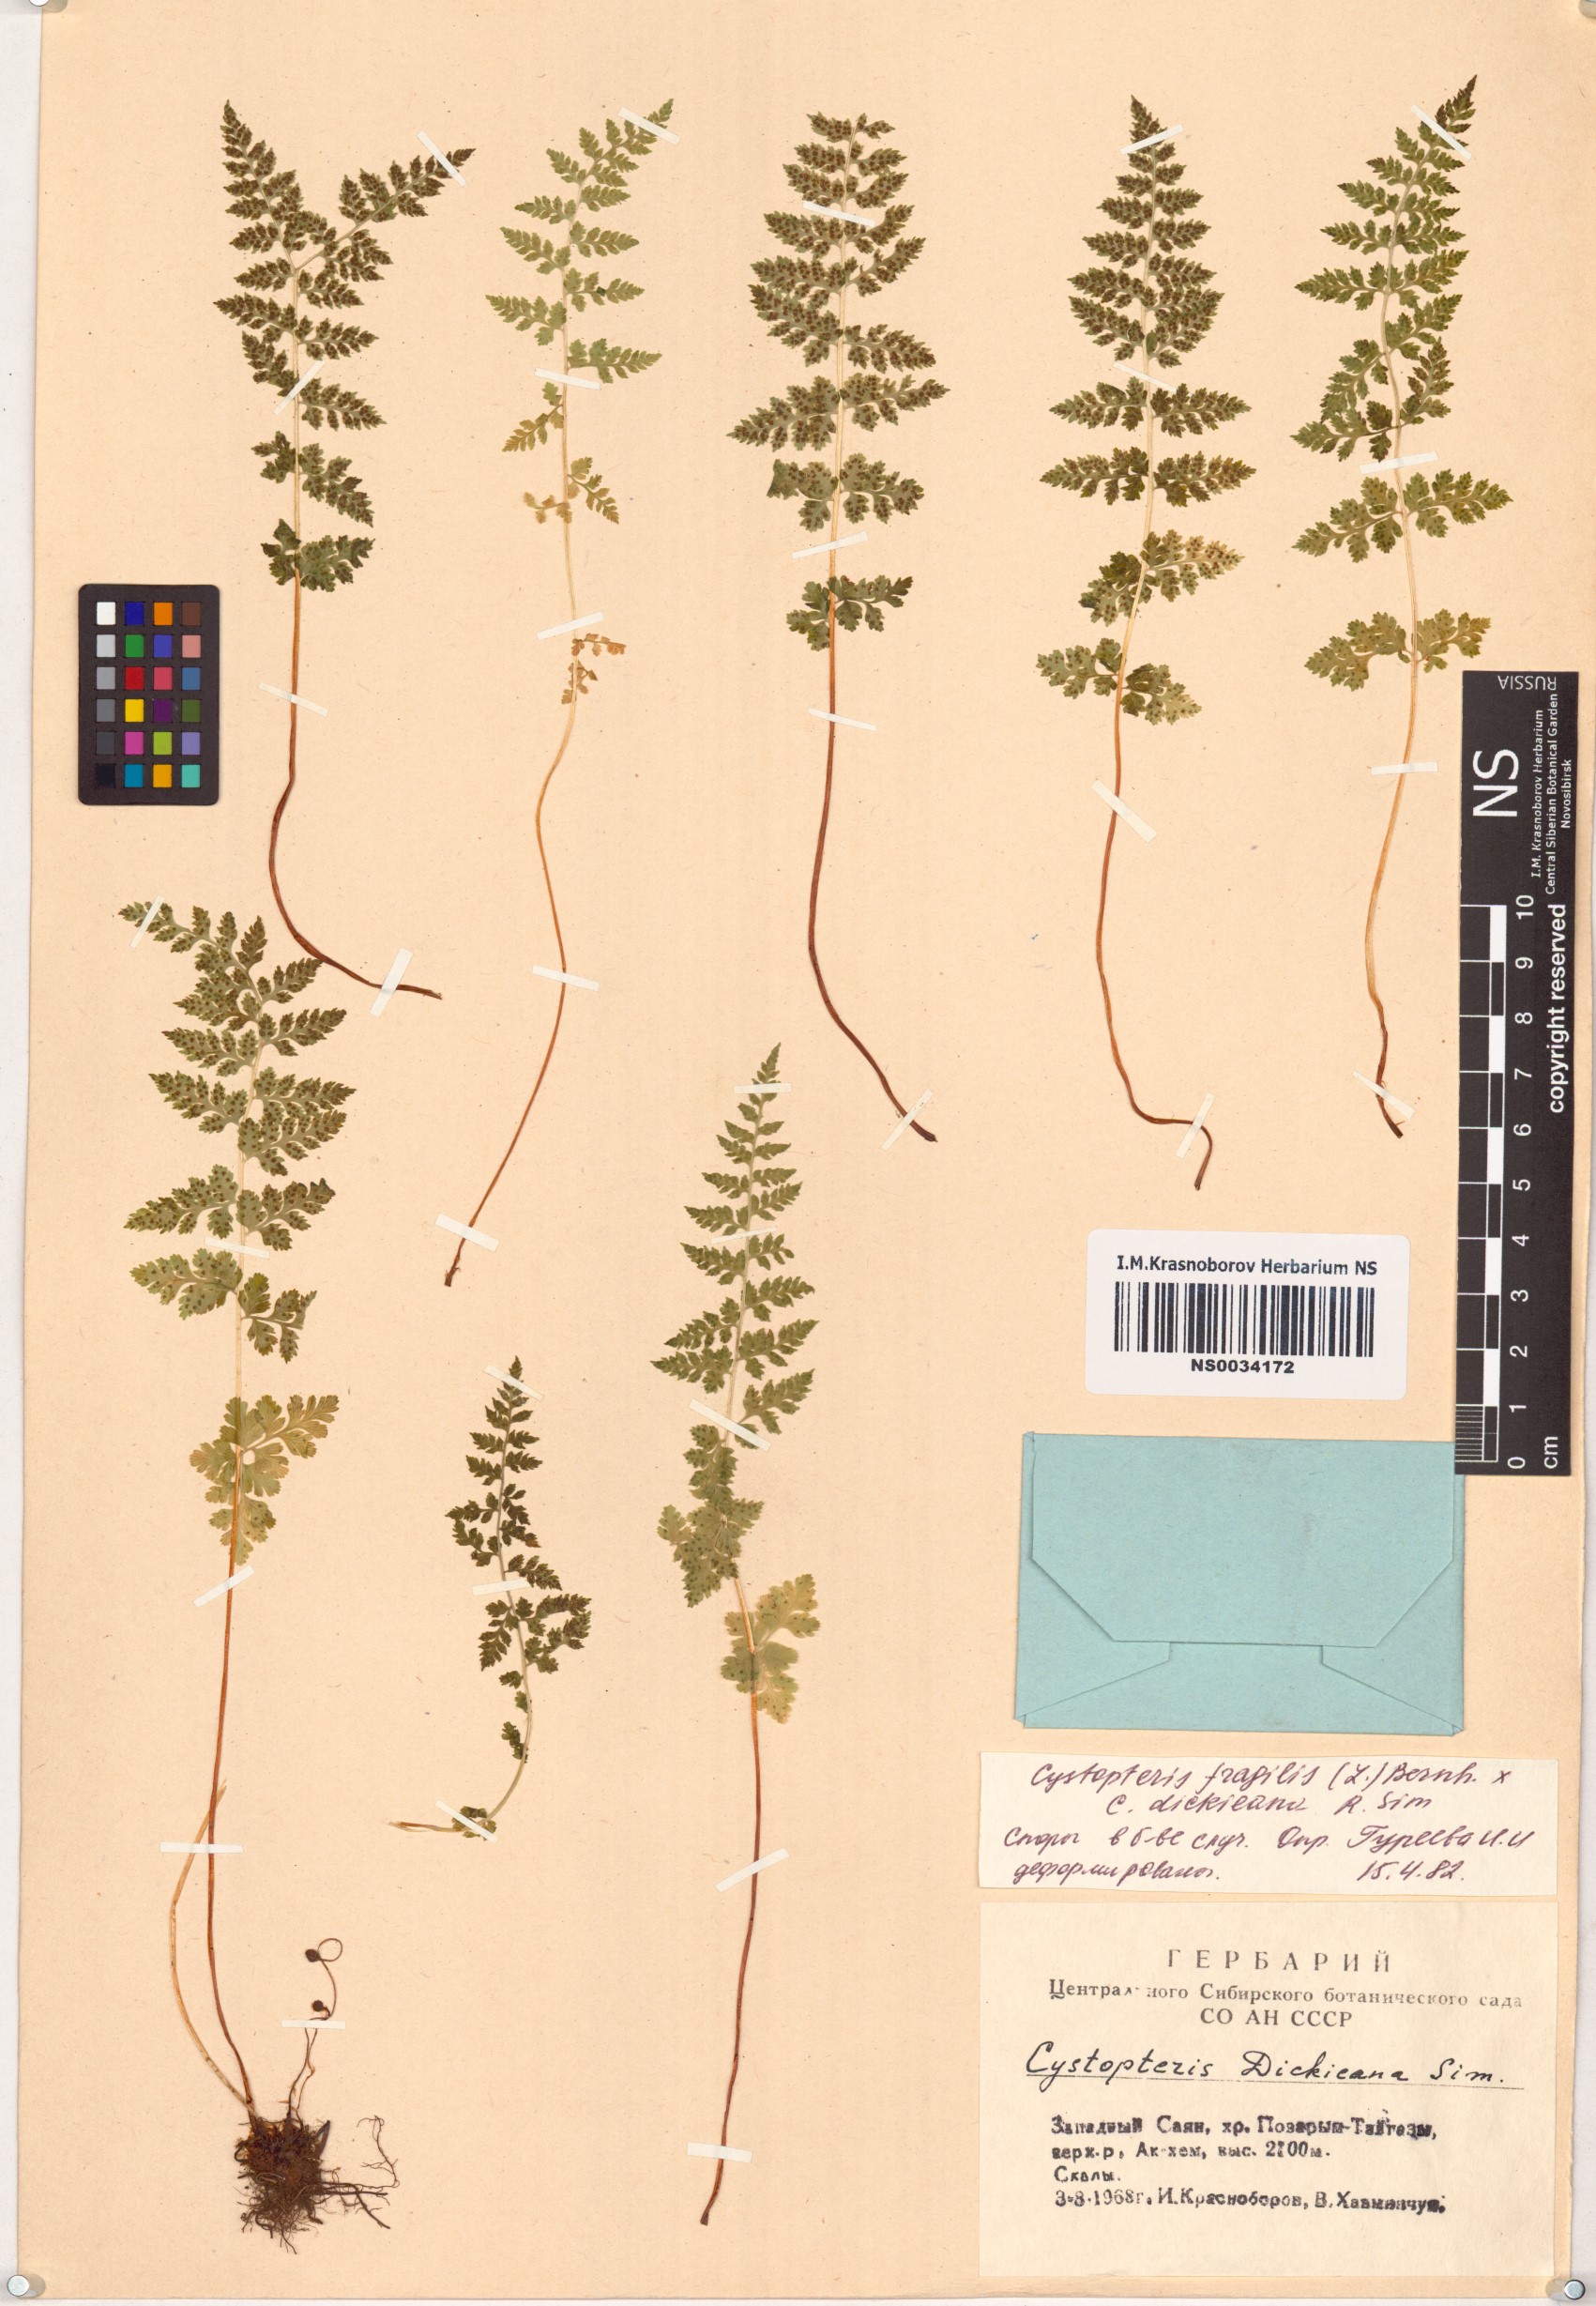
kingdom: Plantae
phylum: Tracheophyta
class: Polypodiopsida
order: Polypodiales
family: Cystopteridaceae
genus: Cystopteris
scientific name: Cystopteris fragilis
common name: Brittle bladder fern
